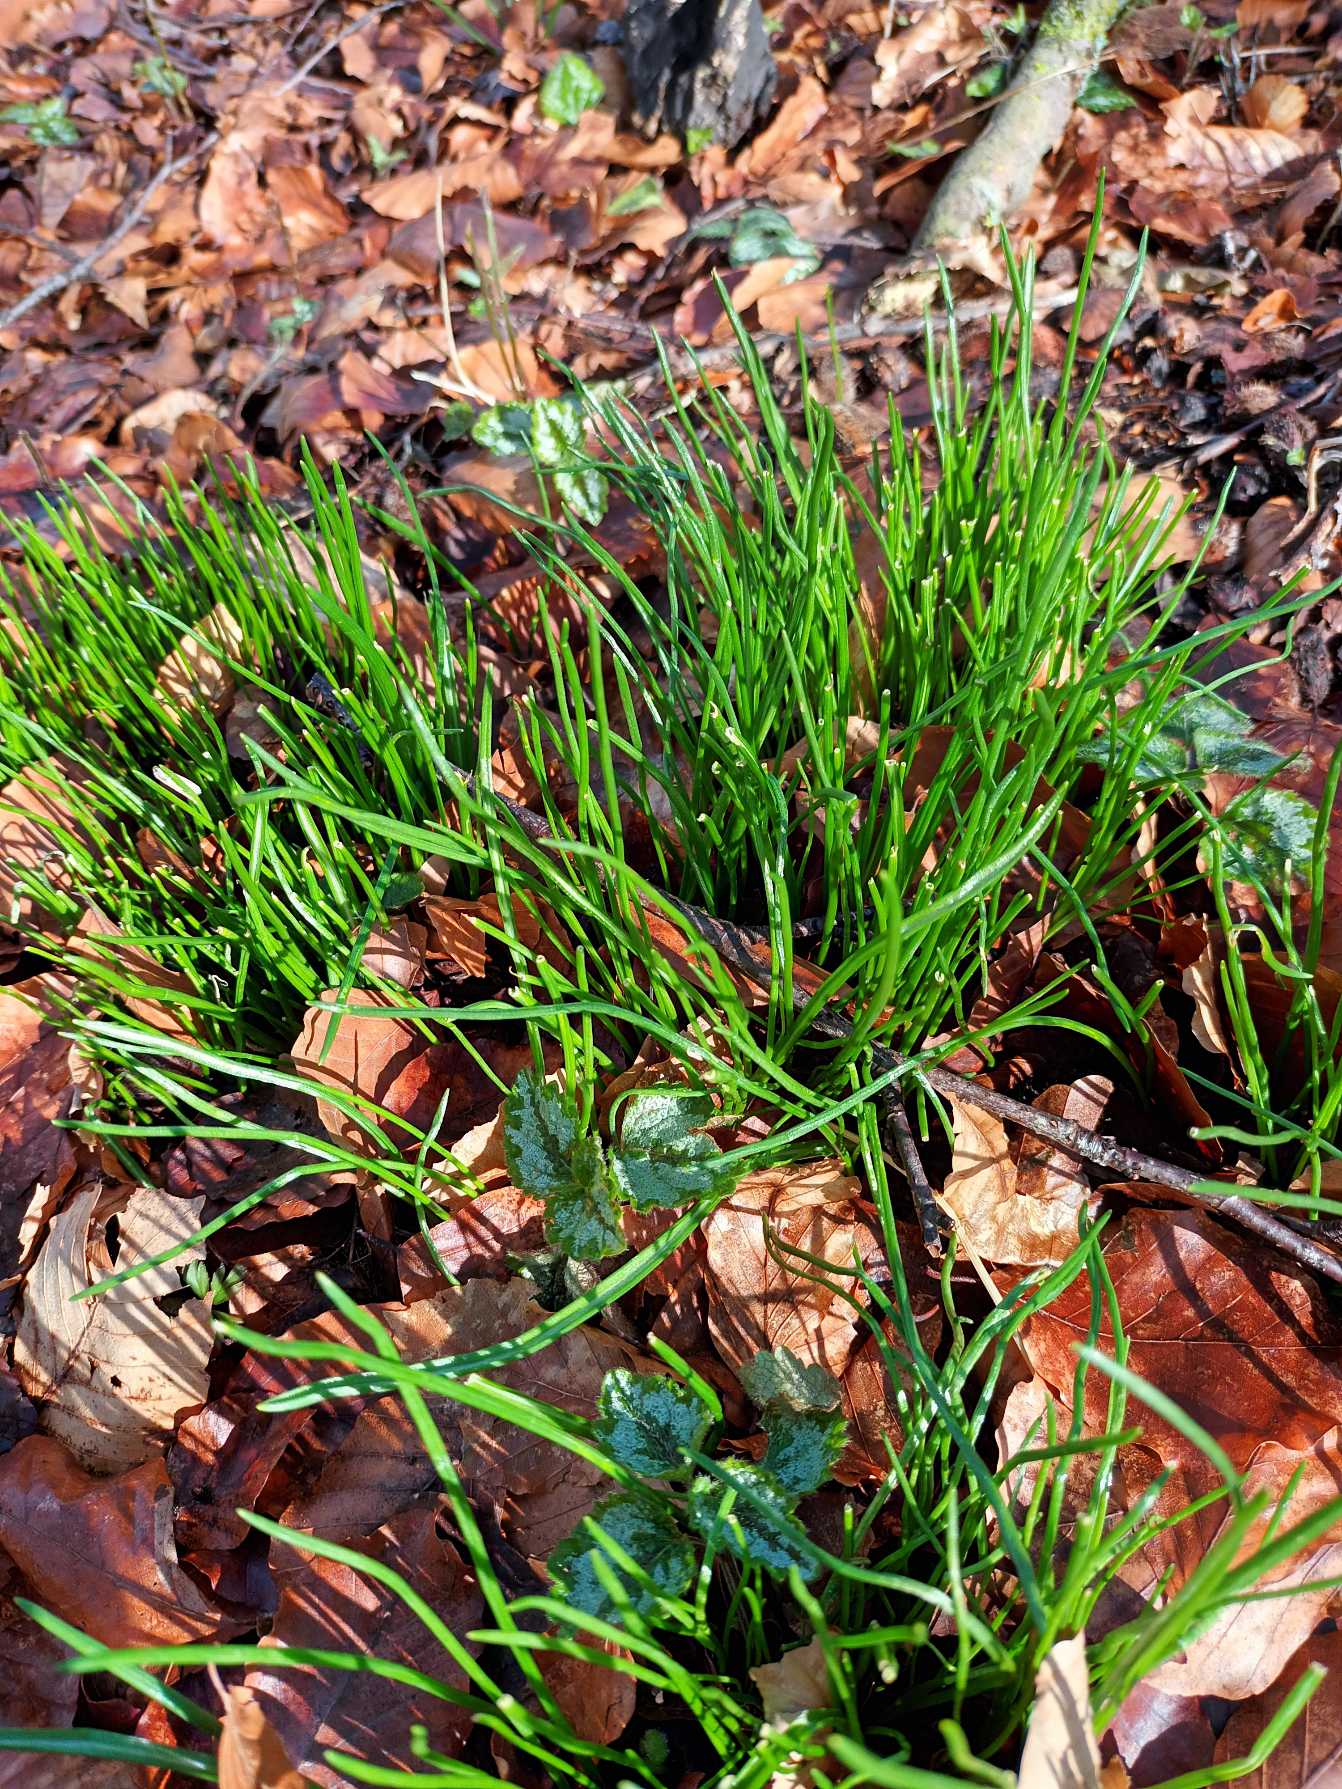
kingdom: Plantae
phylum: Tracheophyta
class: Liliopsida
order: Asparagales
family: Asparagaceae
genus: Ornithogalum
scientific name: Ornithogalum umbellatum
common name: Kost-fuglemælk
